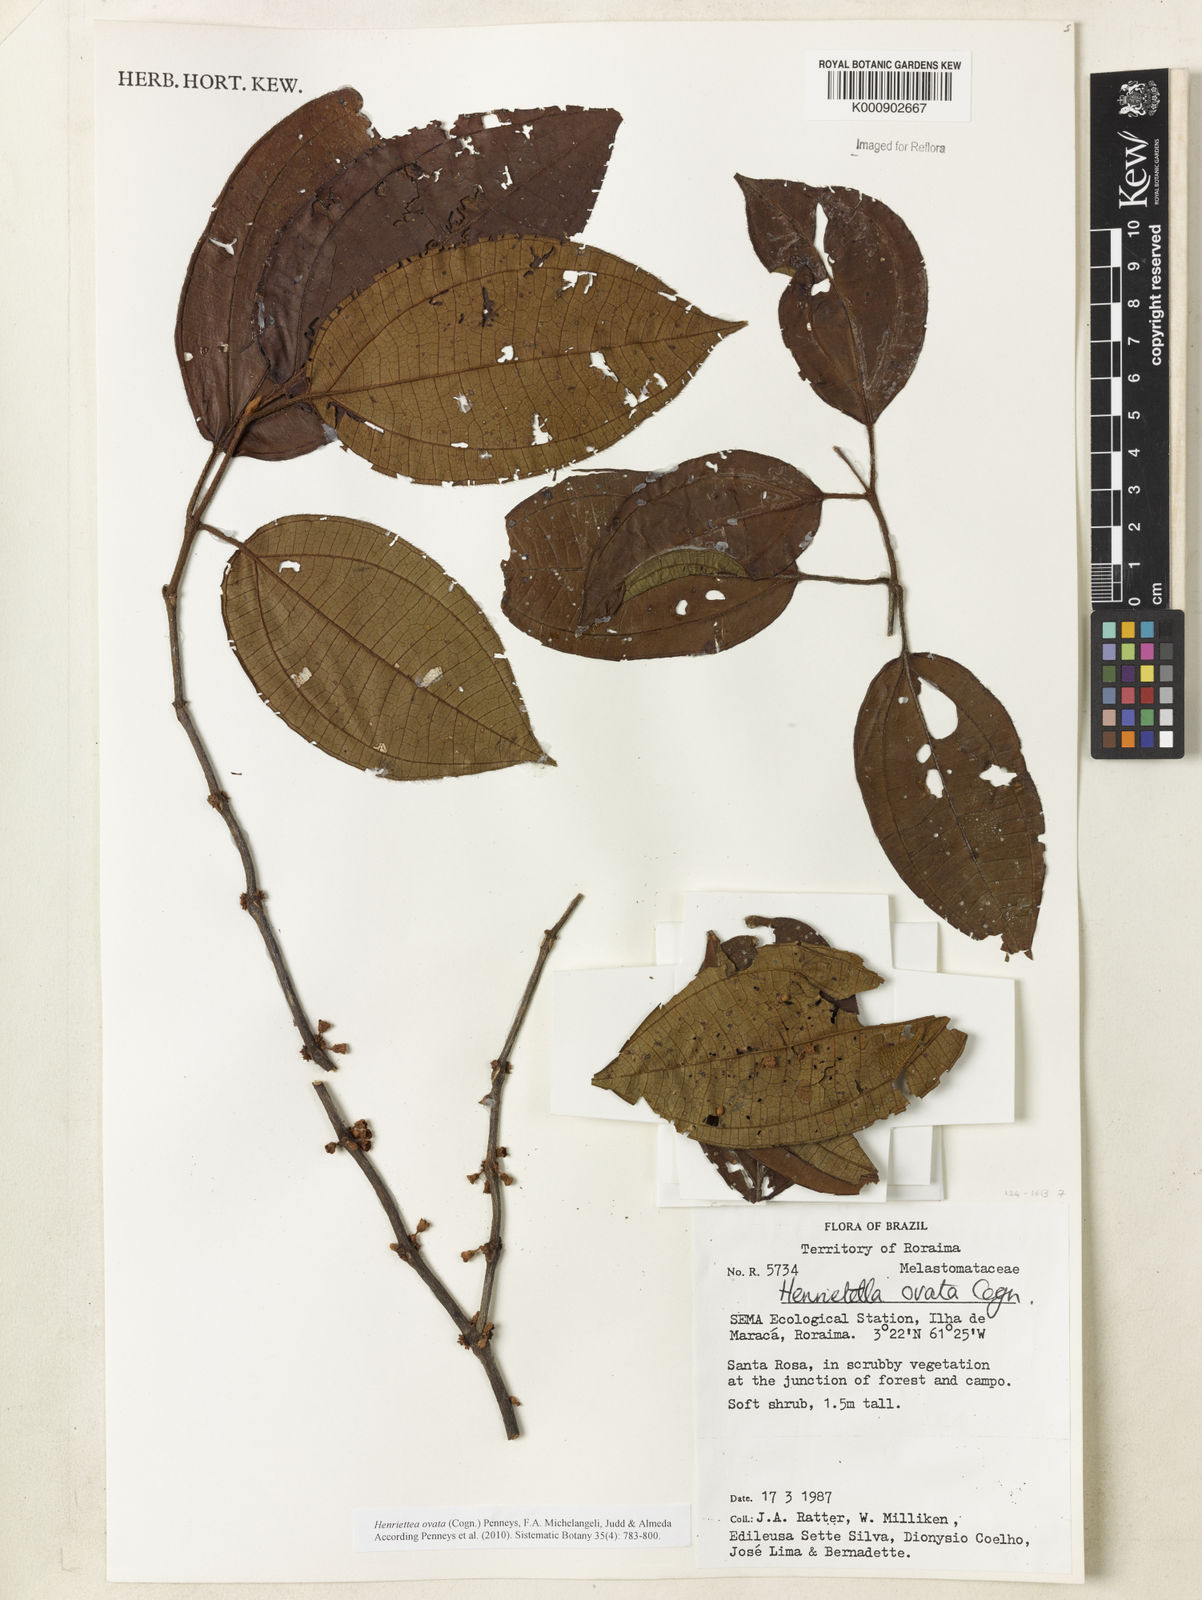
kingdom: Plantae
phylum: Tracheophyta
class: Magnoliopsida
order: Myrtales
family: Melastomataceae
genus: Henriettea
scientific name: Henriettea ovata
